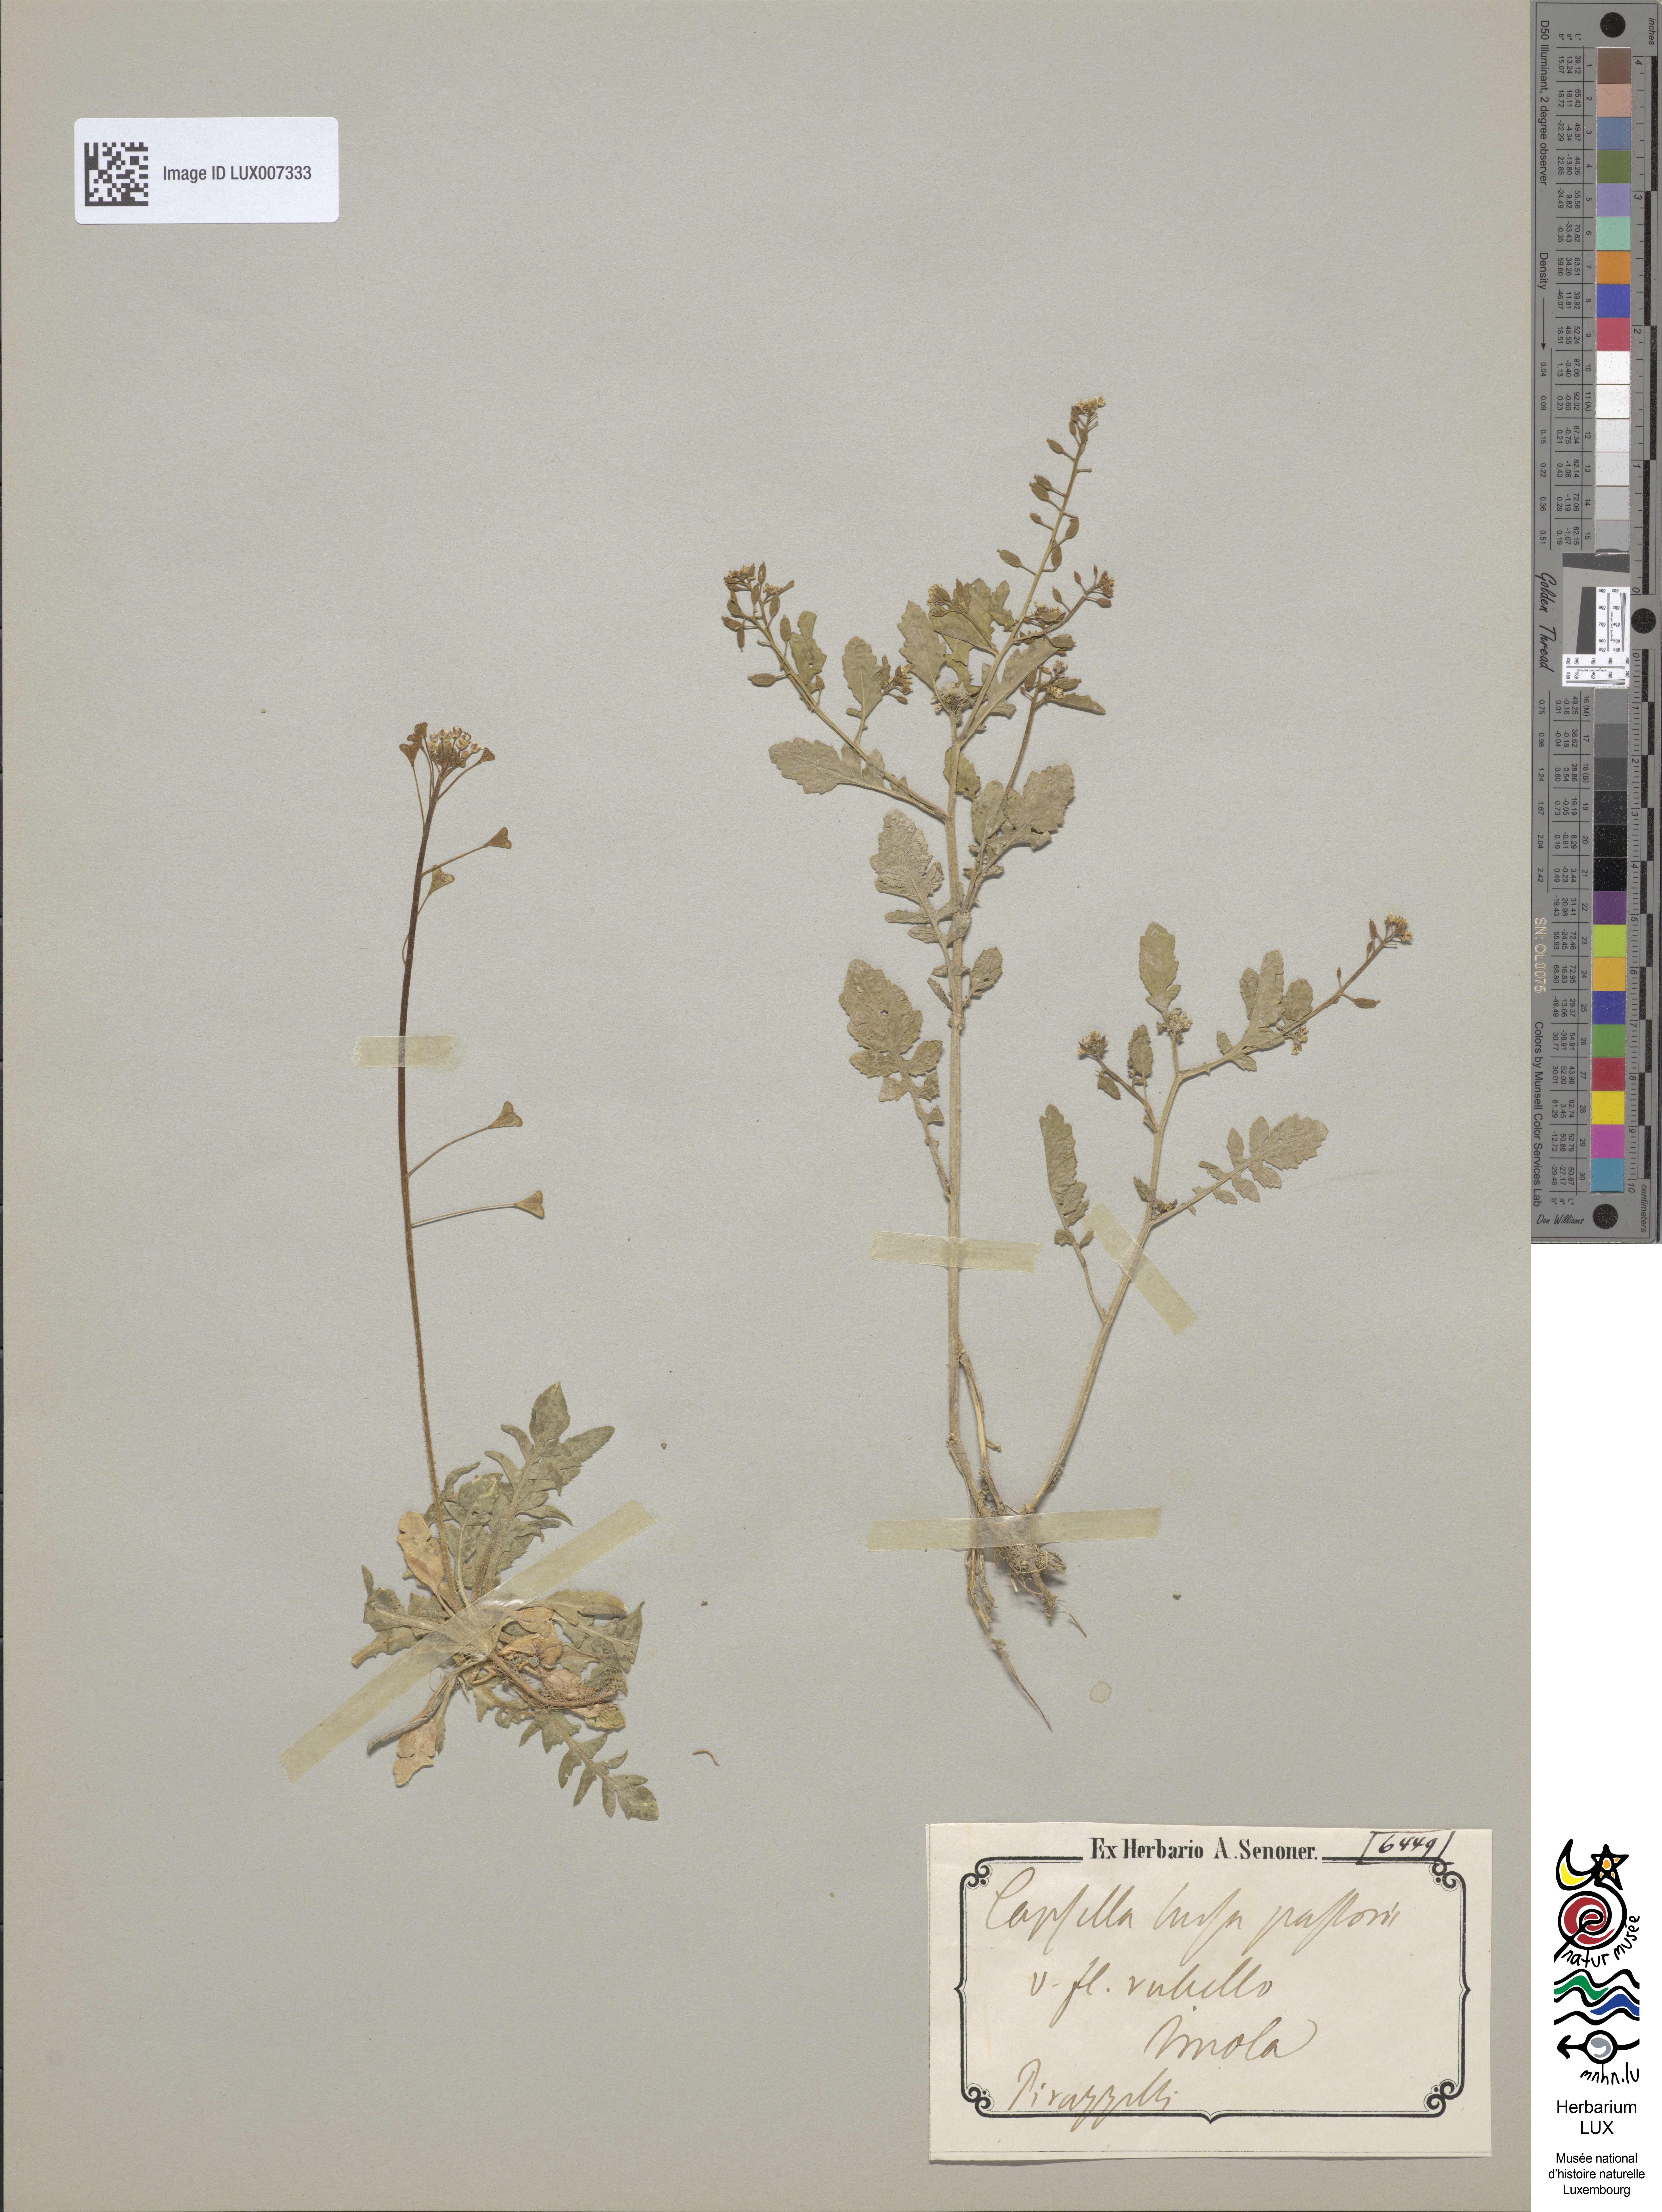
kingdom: Plantae
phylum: Tracheophyta
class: Magnoliopsida
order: Brassicales
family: Brassicaceae
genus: Capsella
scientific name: Capsella bursa-pastoris
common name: Shepherd's purse
